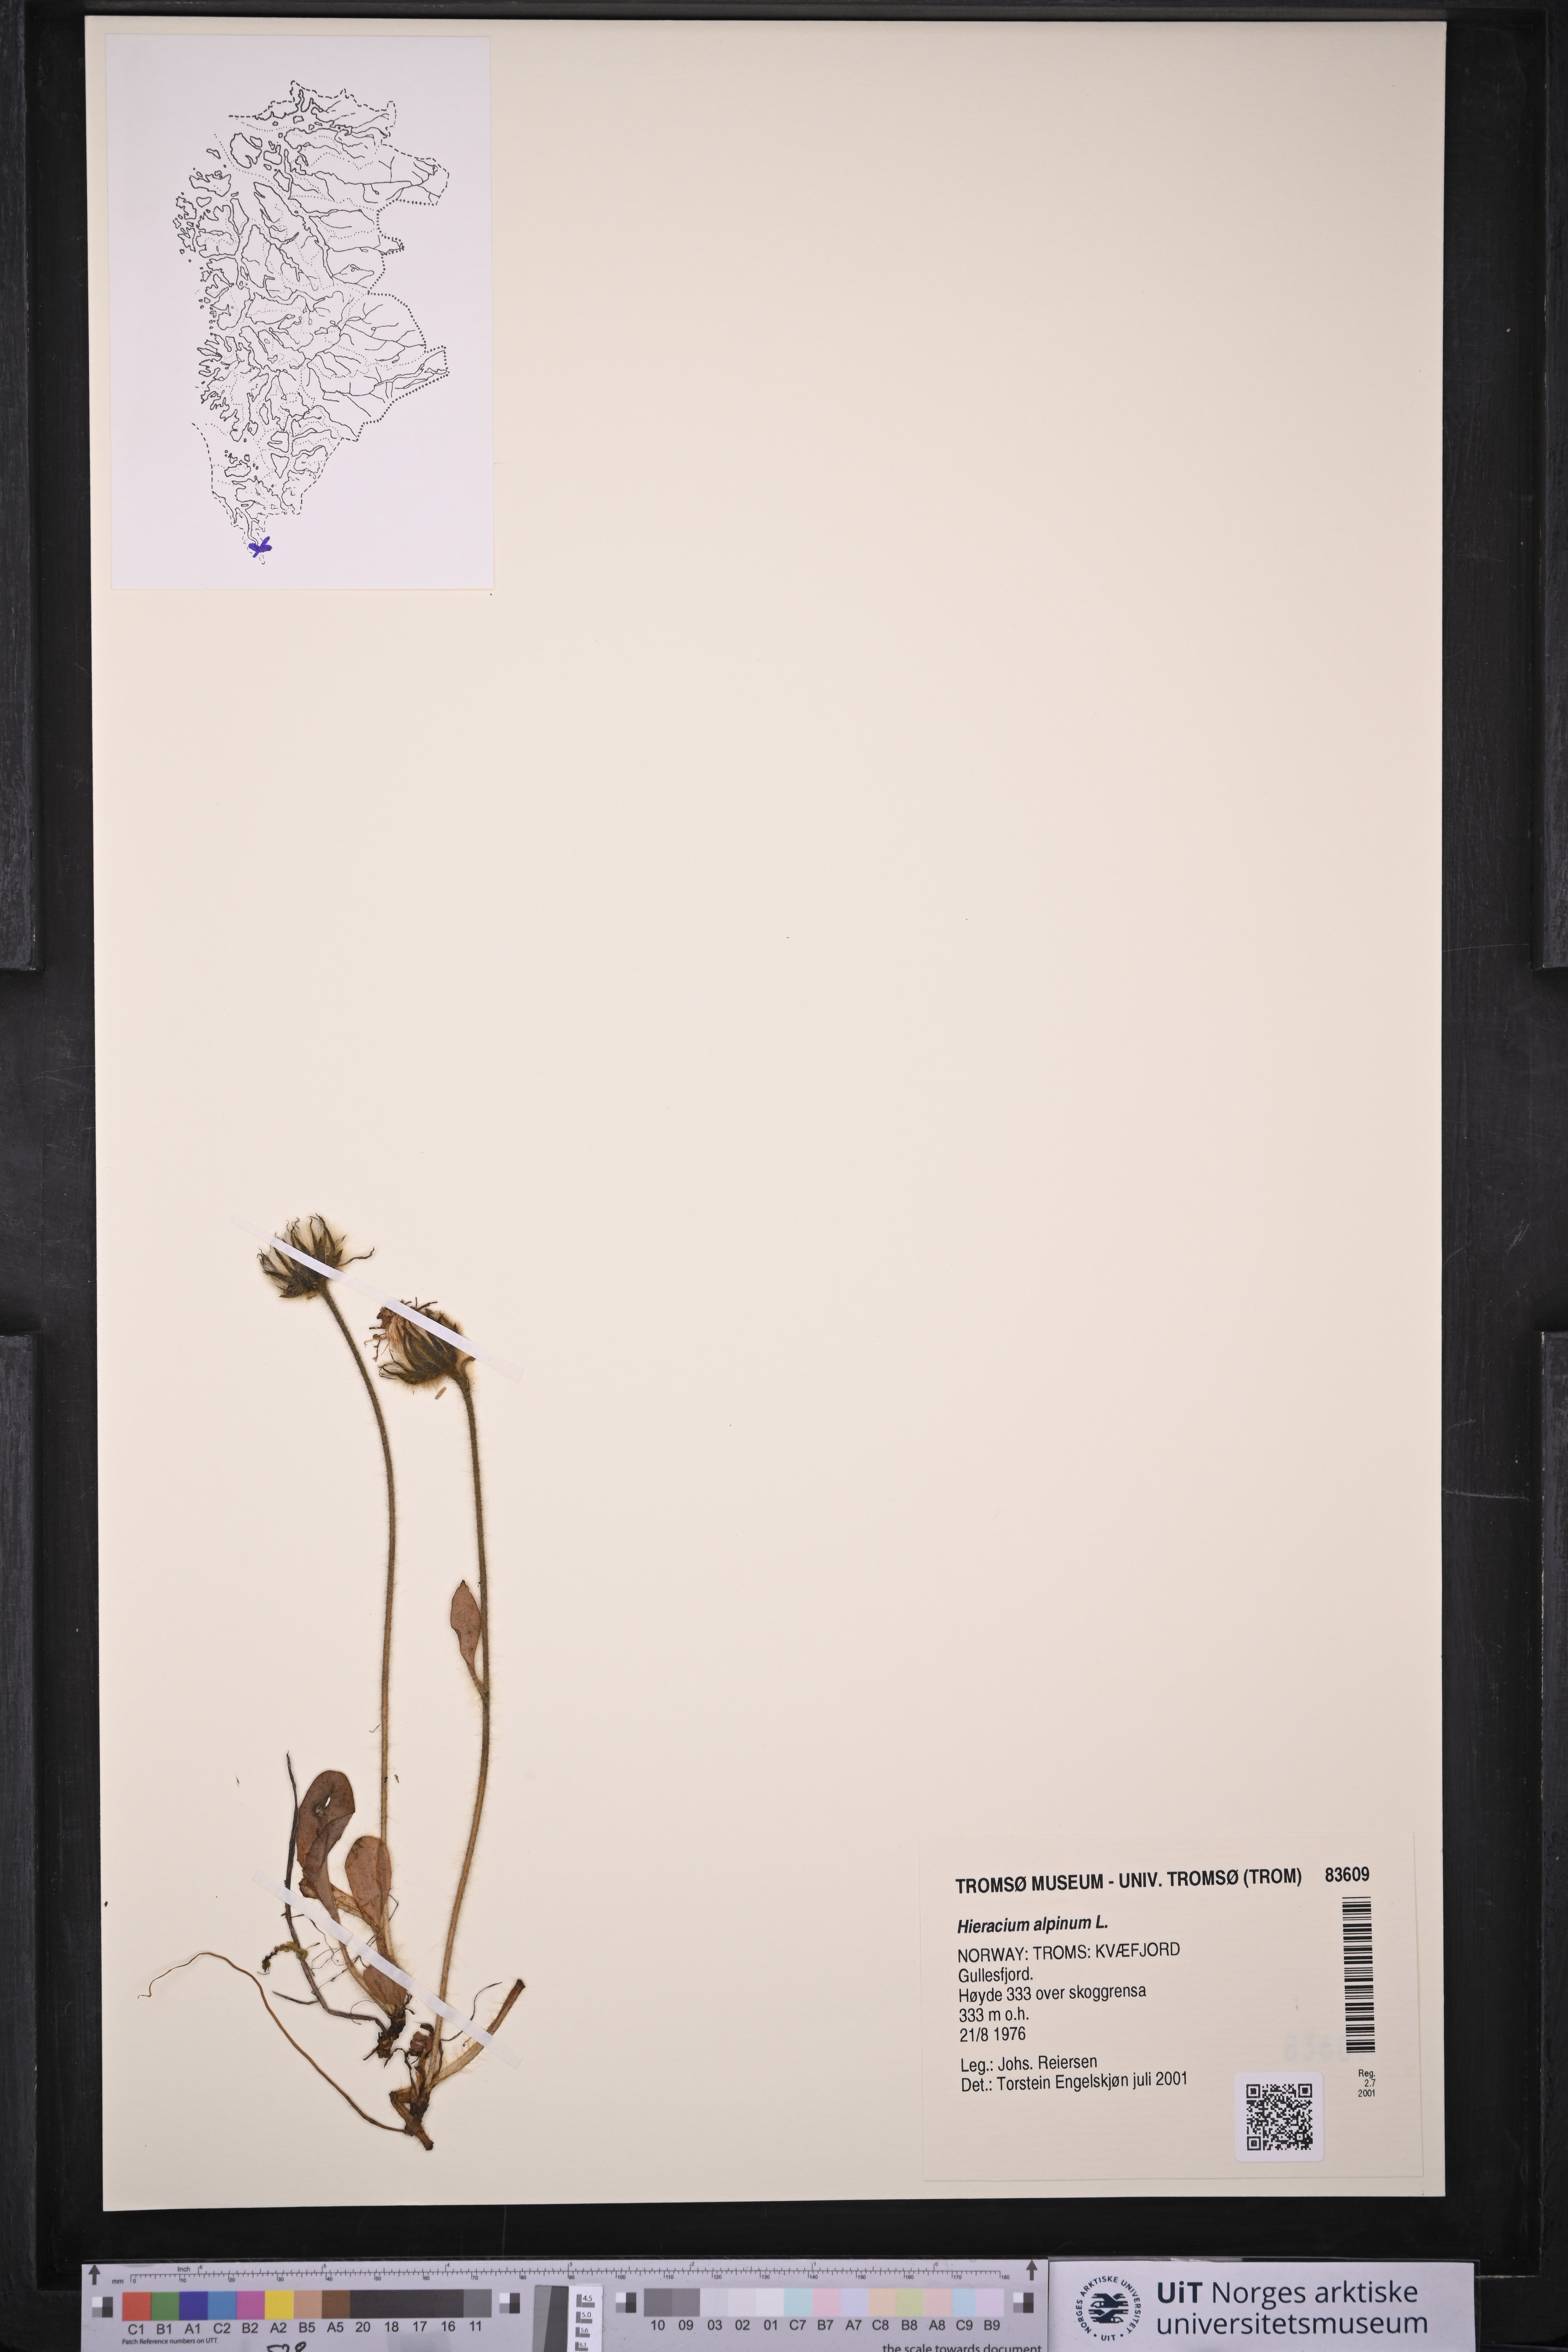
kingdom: Plantae
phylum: Tracheophyta
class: Magnoliopsida
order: Asterales
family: Asteraceae
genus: Hieracium
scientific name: Hieracium alpinum
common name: Alpine hawkweed
